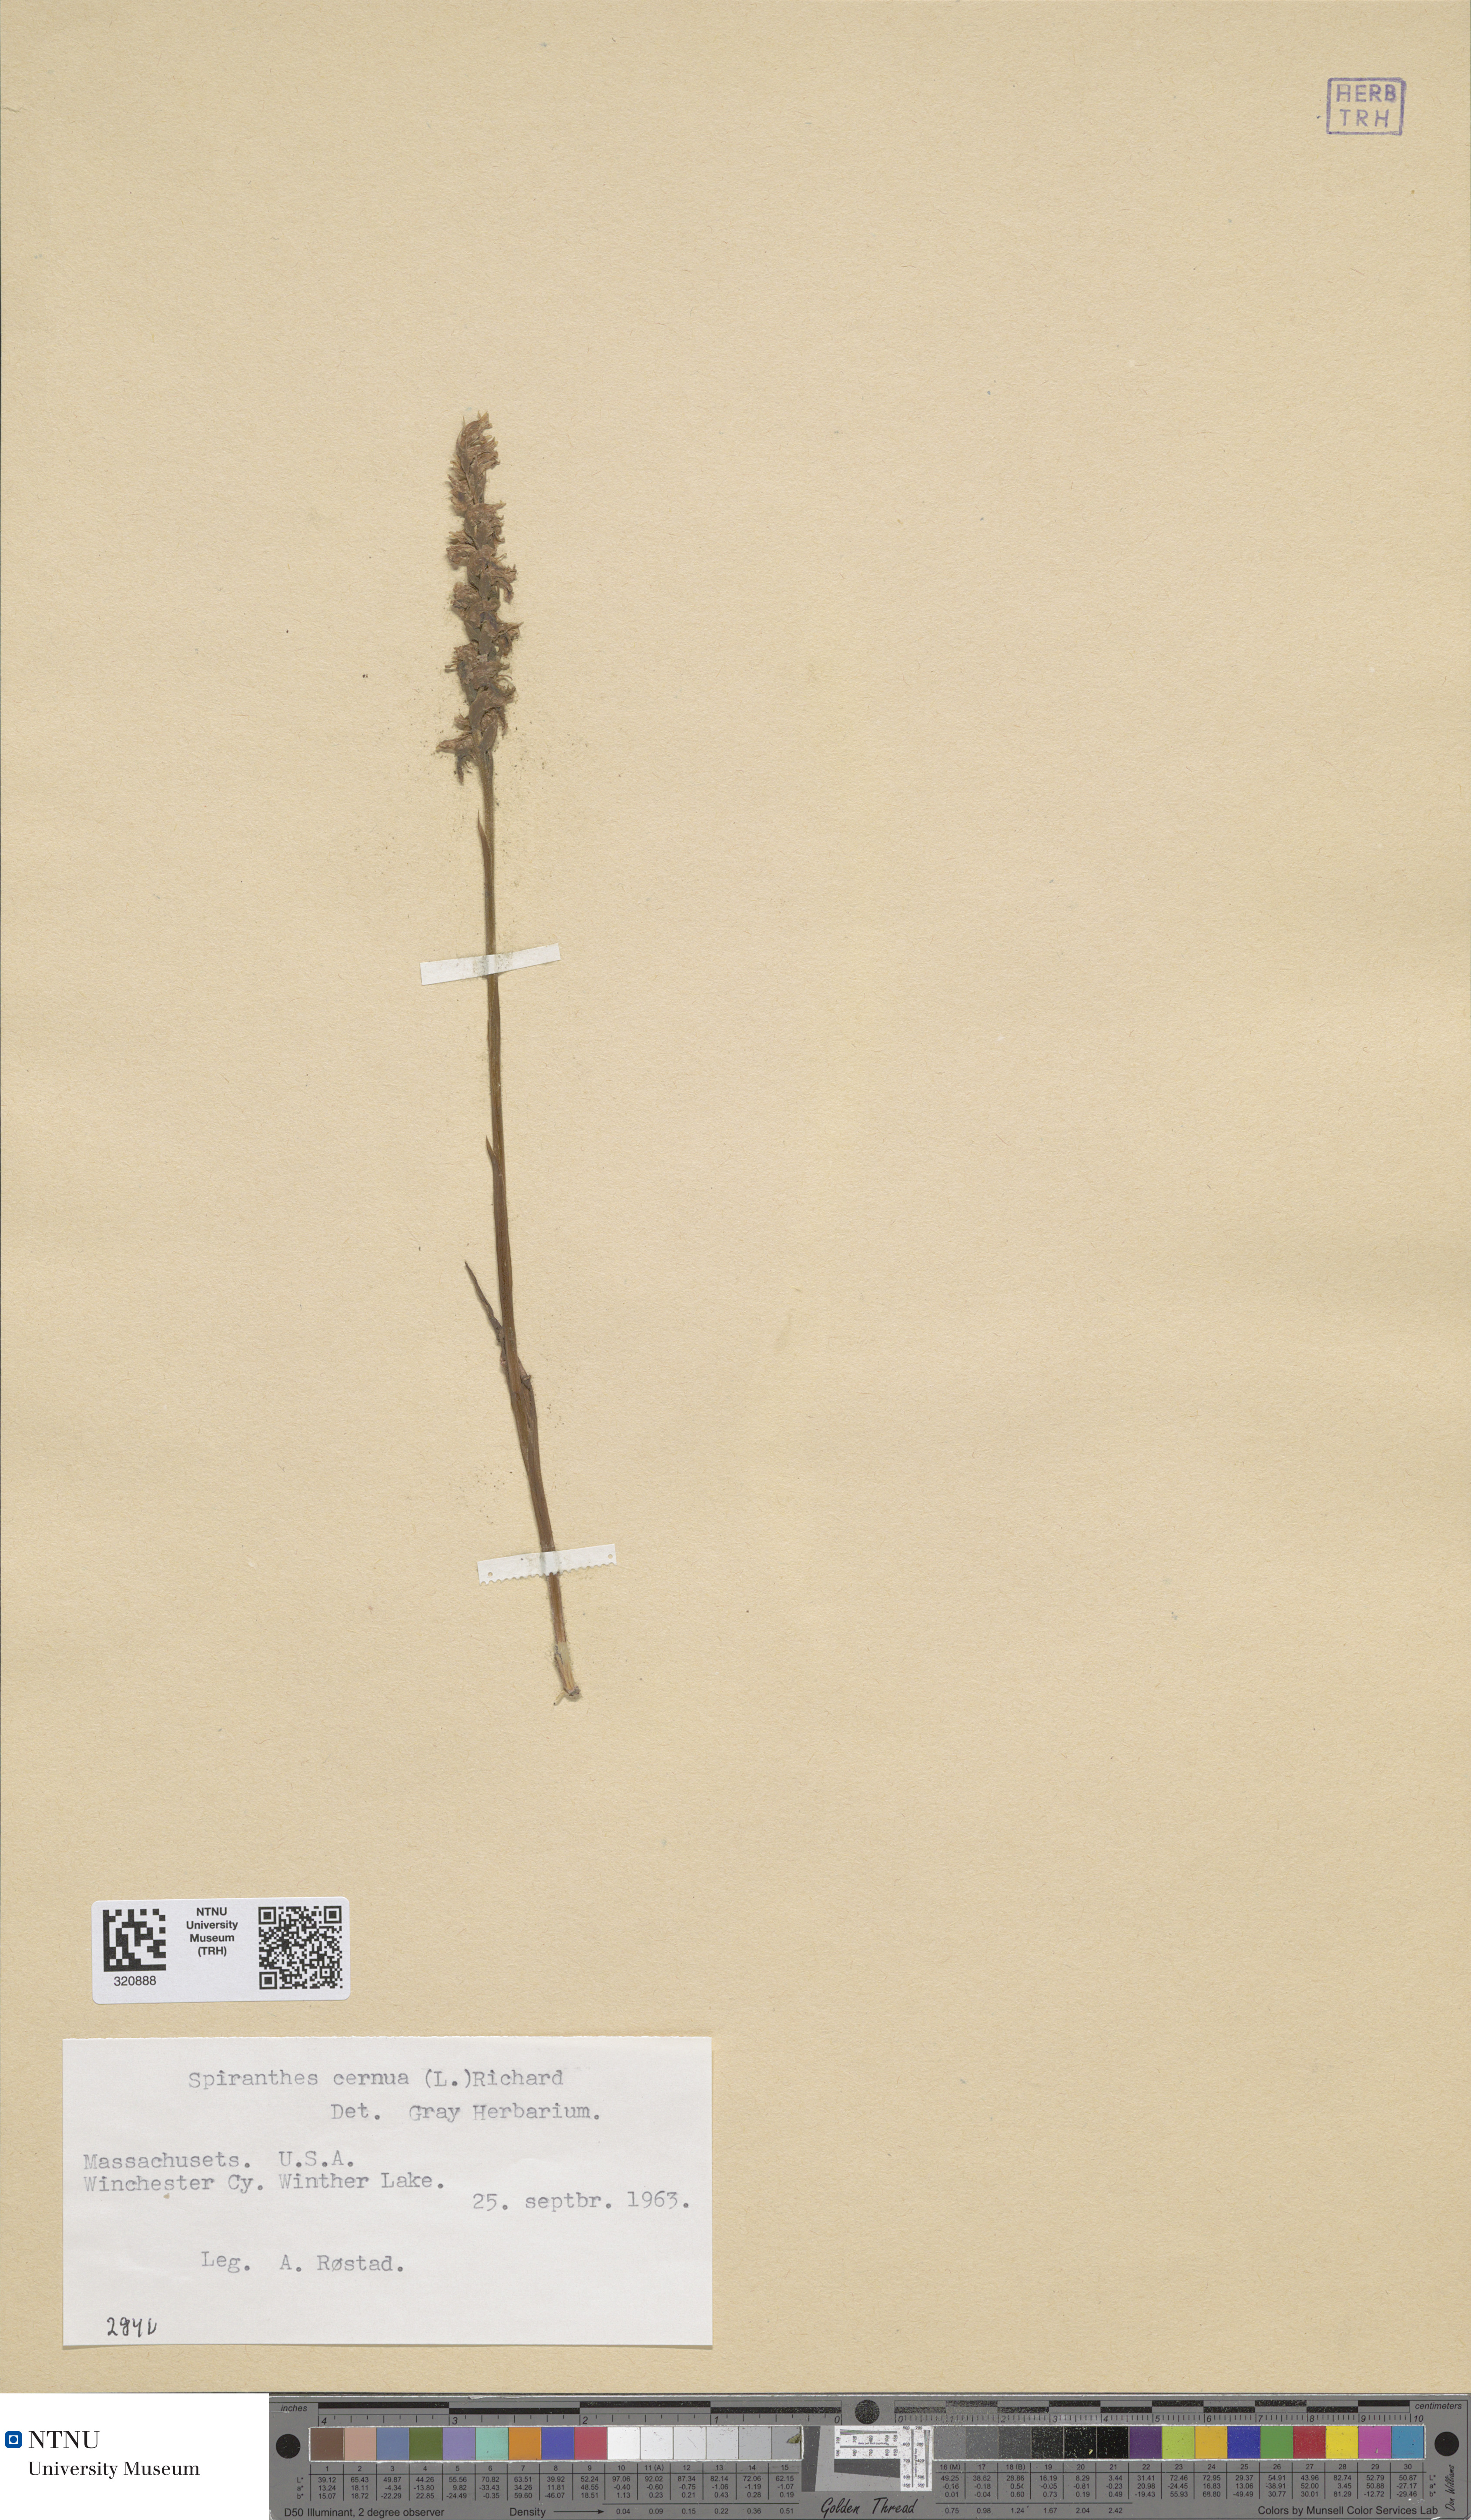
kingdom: Plantae
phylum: Tracheophyta
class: Liliopsida
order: Asparagales
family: Orchidaceae
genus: Spiranthes
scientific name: Spiranthes cernua
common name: Dropping ladies'-tresses
